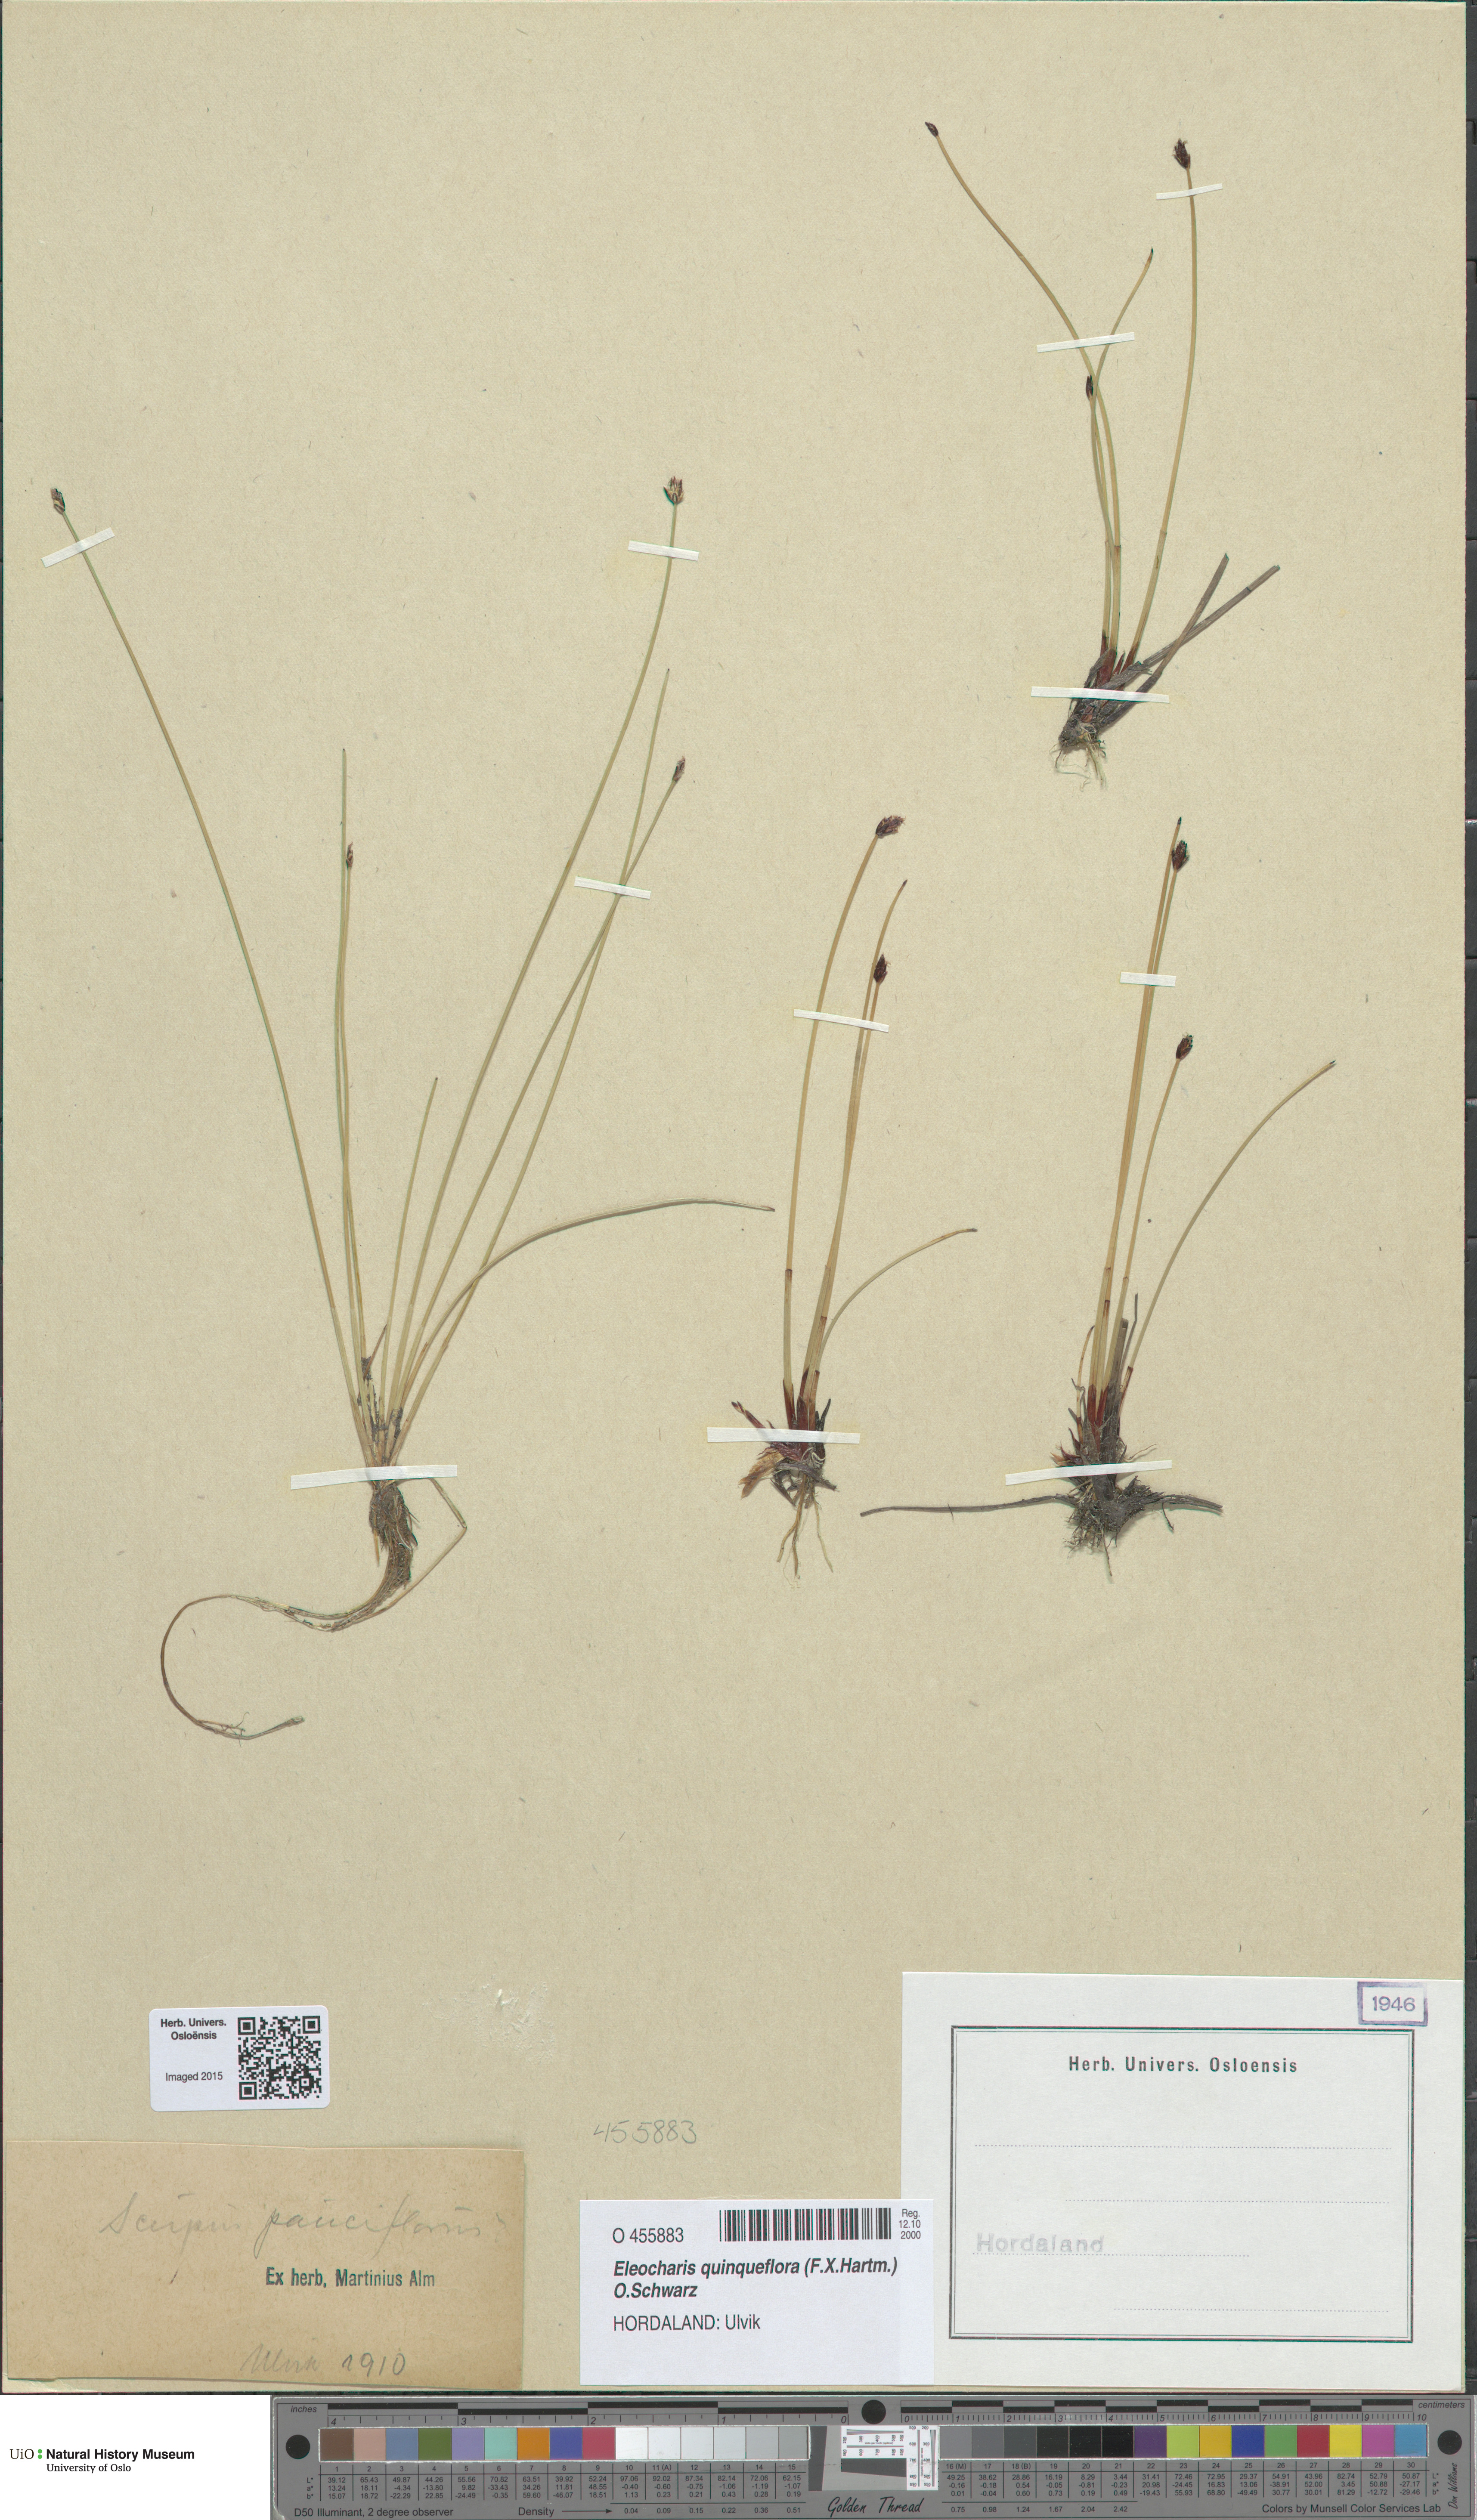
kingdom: Plantae
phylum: Tracheophyta
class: Liliopsida
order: Poales
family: Cyperaceae
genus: Eleocharis
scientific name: Eleocharis quinqueflora
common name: Few-flowered spike-rush
